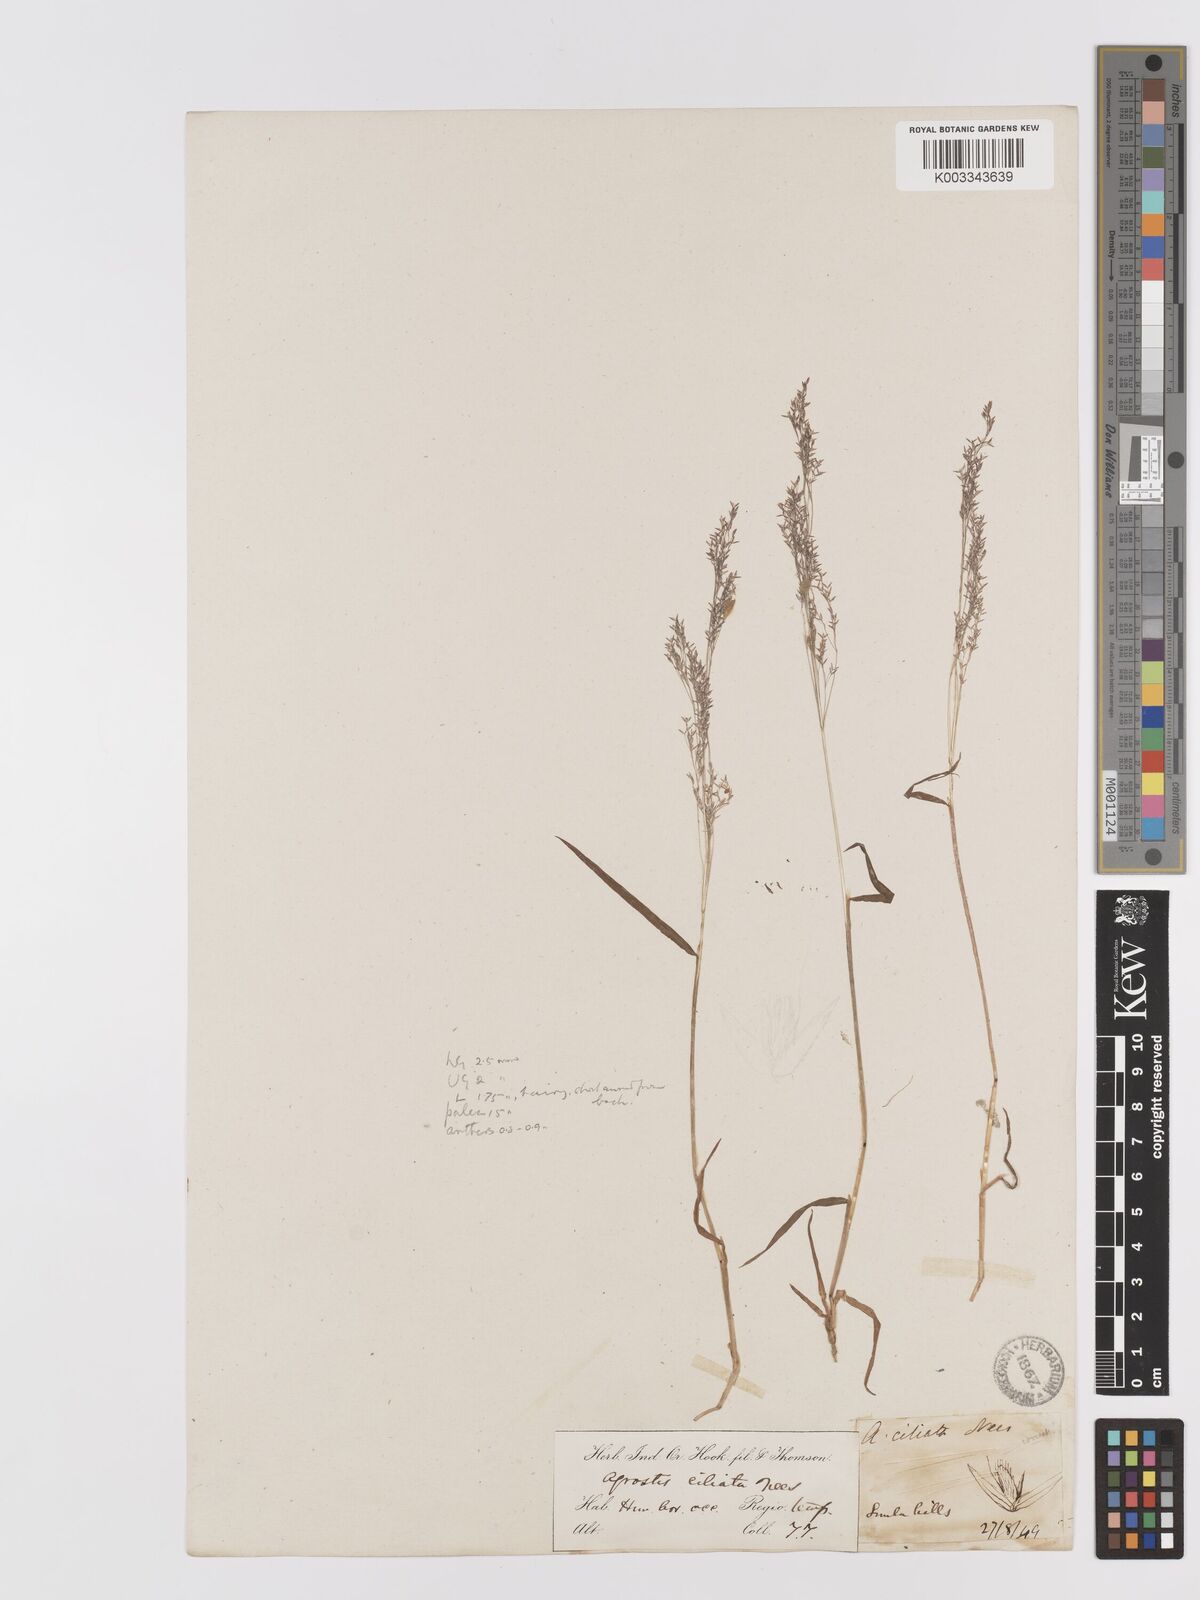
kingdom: Plantae
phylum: Tracheophyta
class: Liliopsida
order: Poales
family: Poaceae
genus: Agrostis
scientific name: Agrostis munroana
